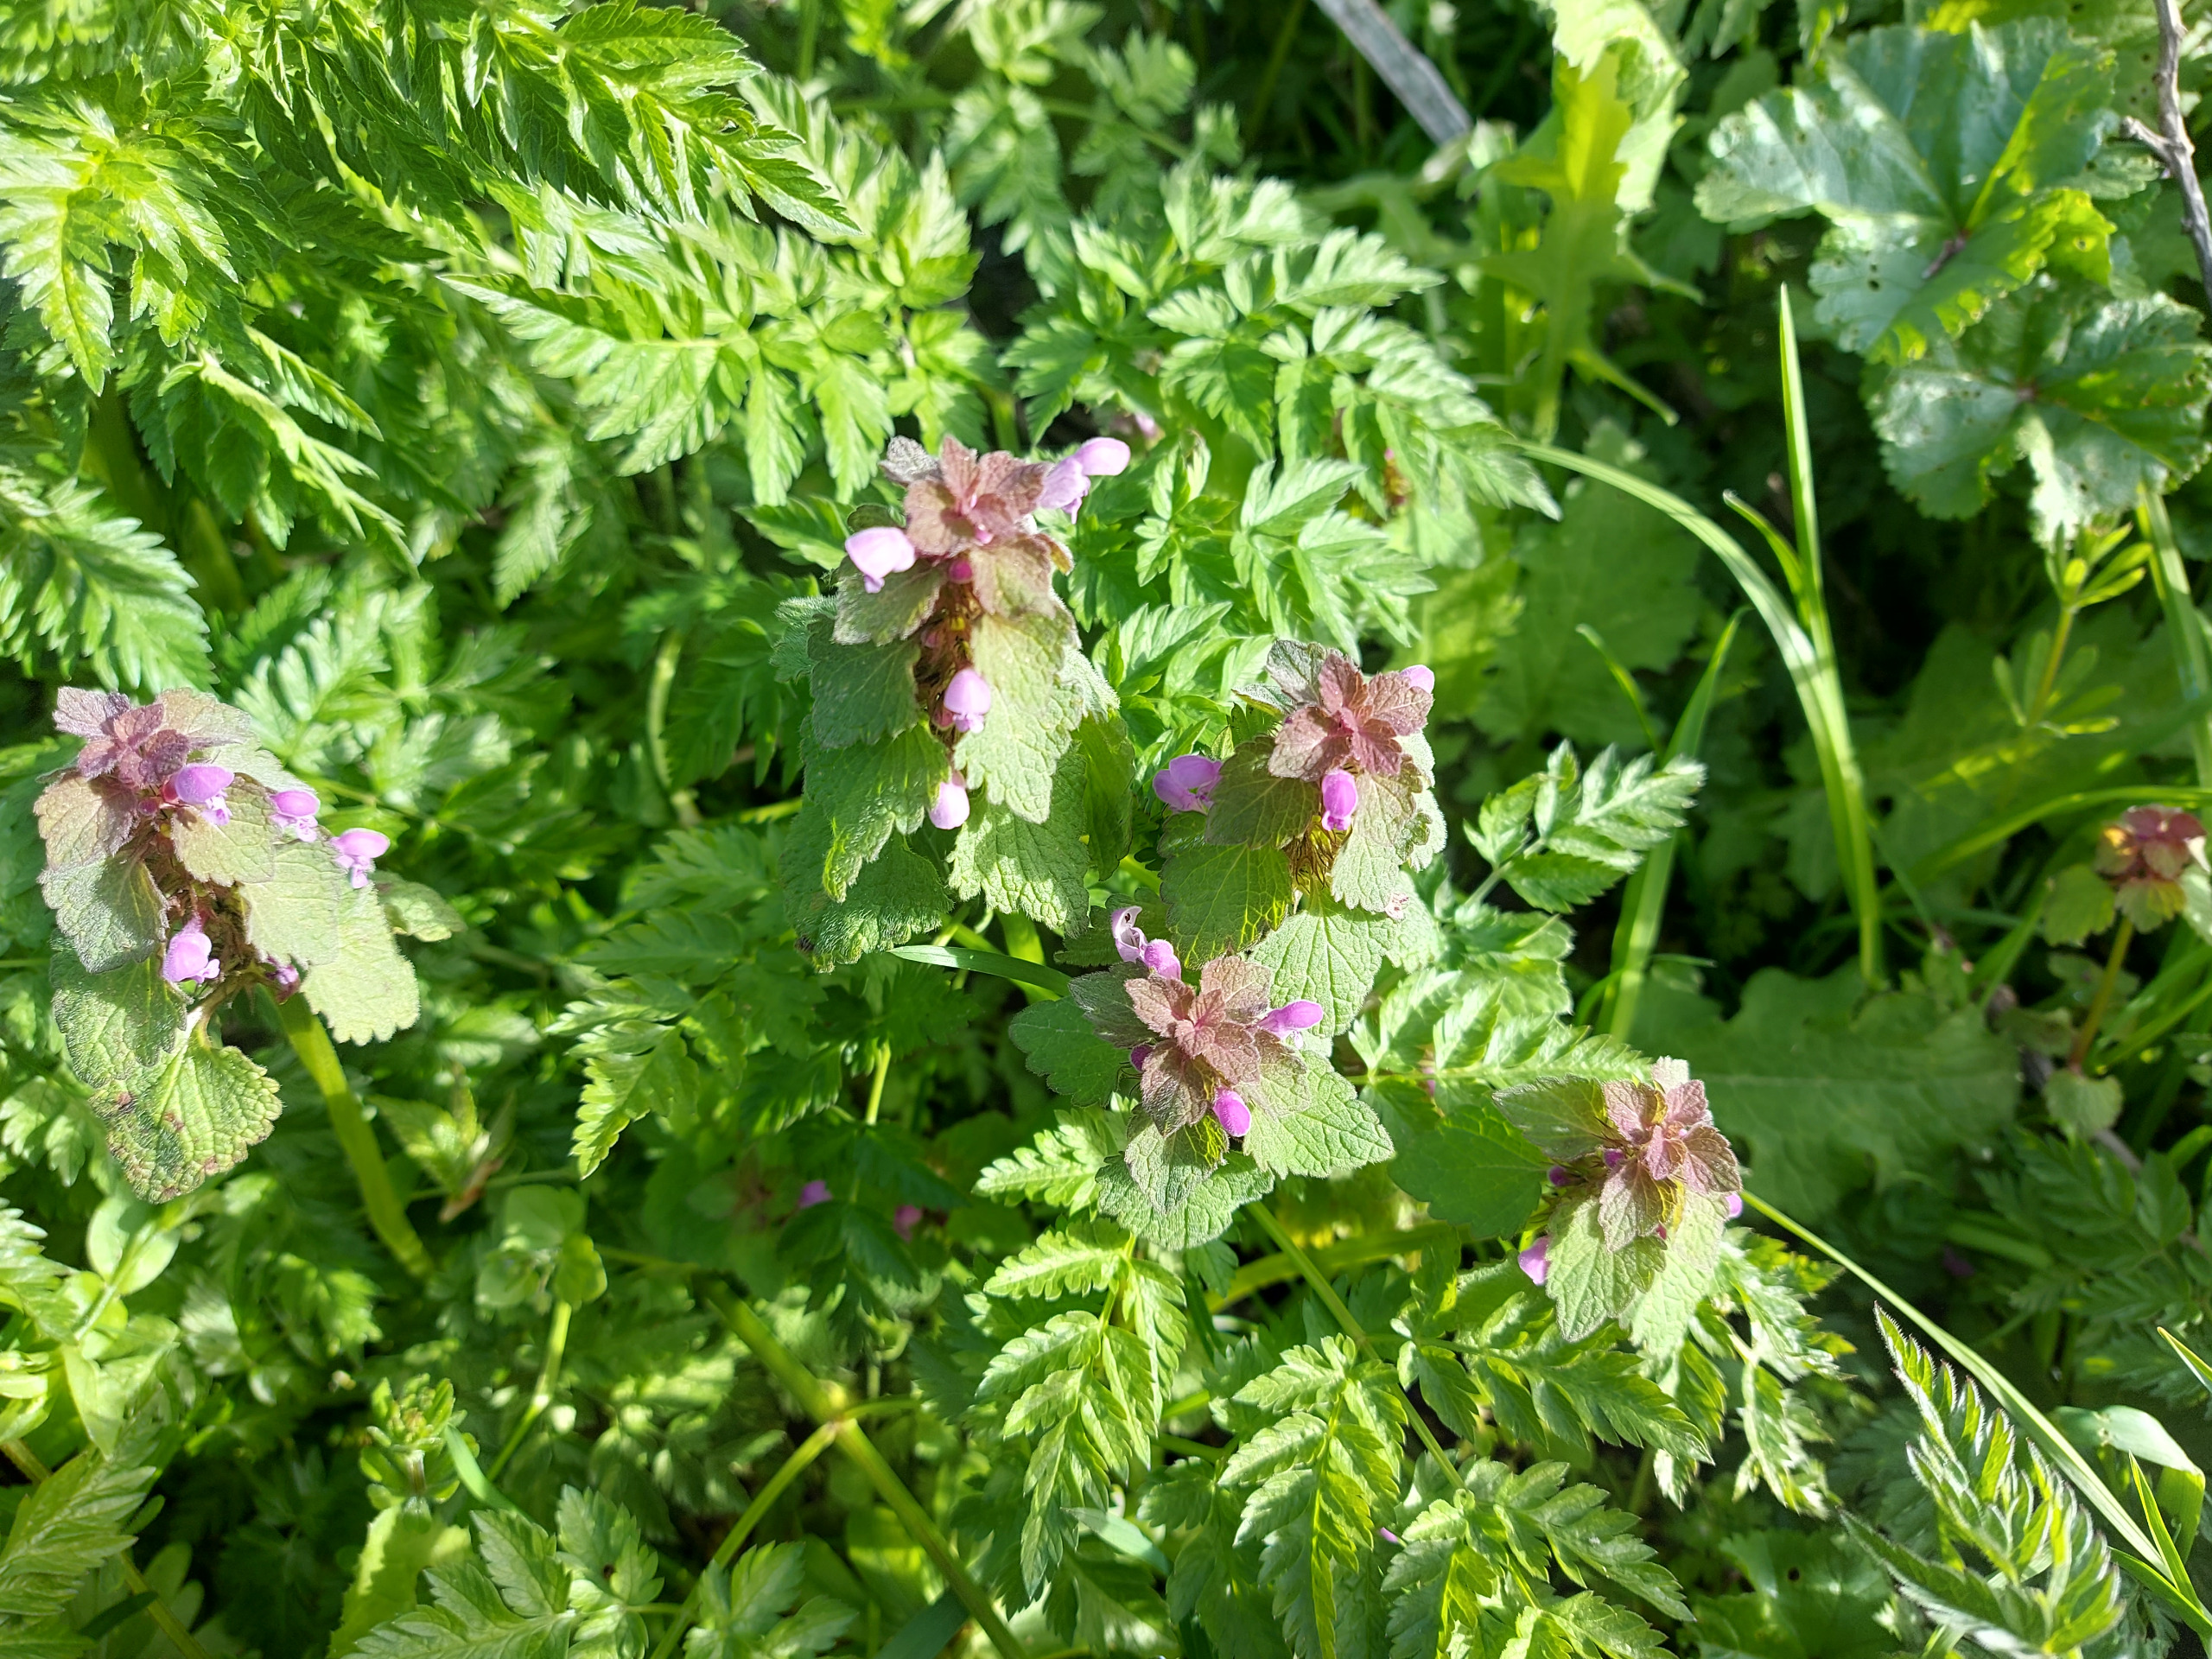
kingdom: Plantae
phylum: Tracheophyta
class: Magnoliopsida
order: Lamiales
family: Lamiaceae
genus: Lamium
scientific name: Lamium purpureum
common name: Rød tvetand
